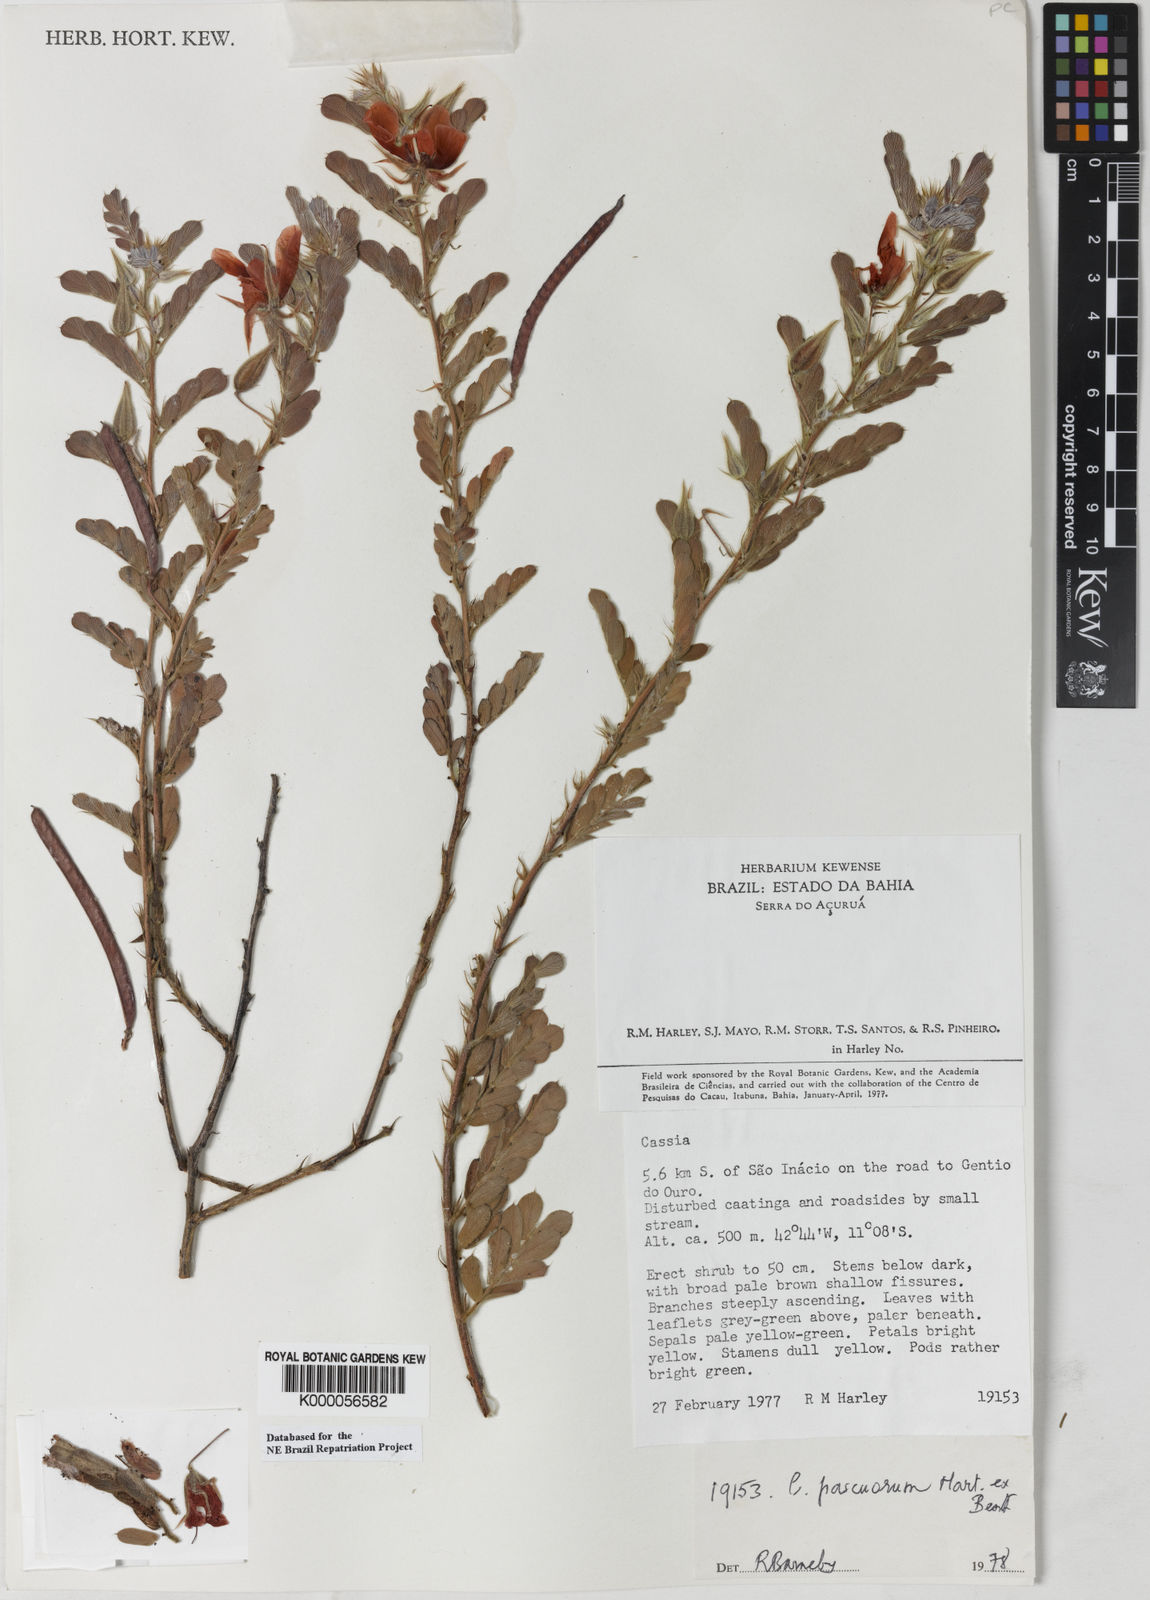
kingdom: Plantae
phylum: Tracheophyta
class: Magnoliopsida
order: Fabales
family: Fabaceae
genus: Chamaecrista
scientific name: Chamaecrista pascuorum
